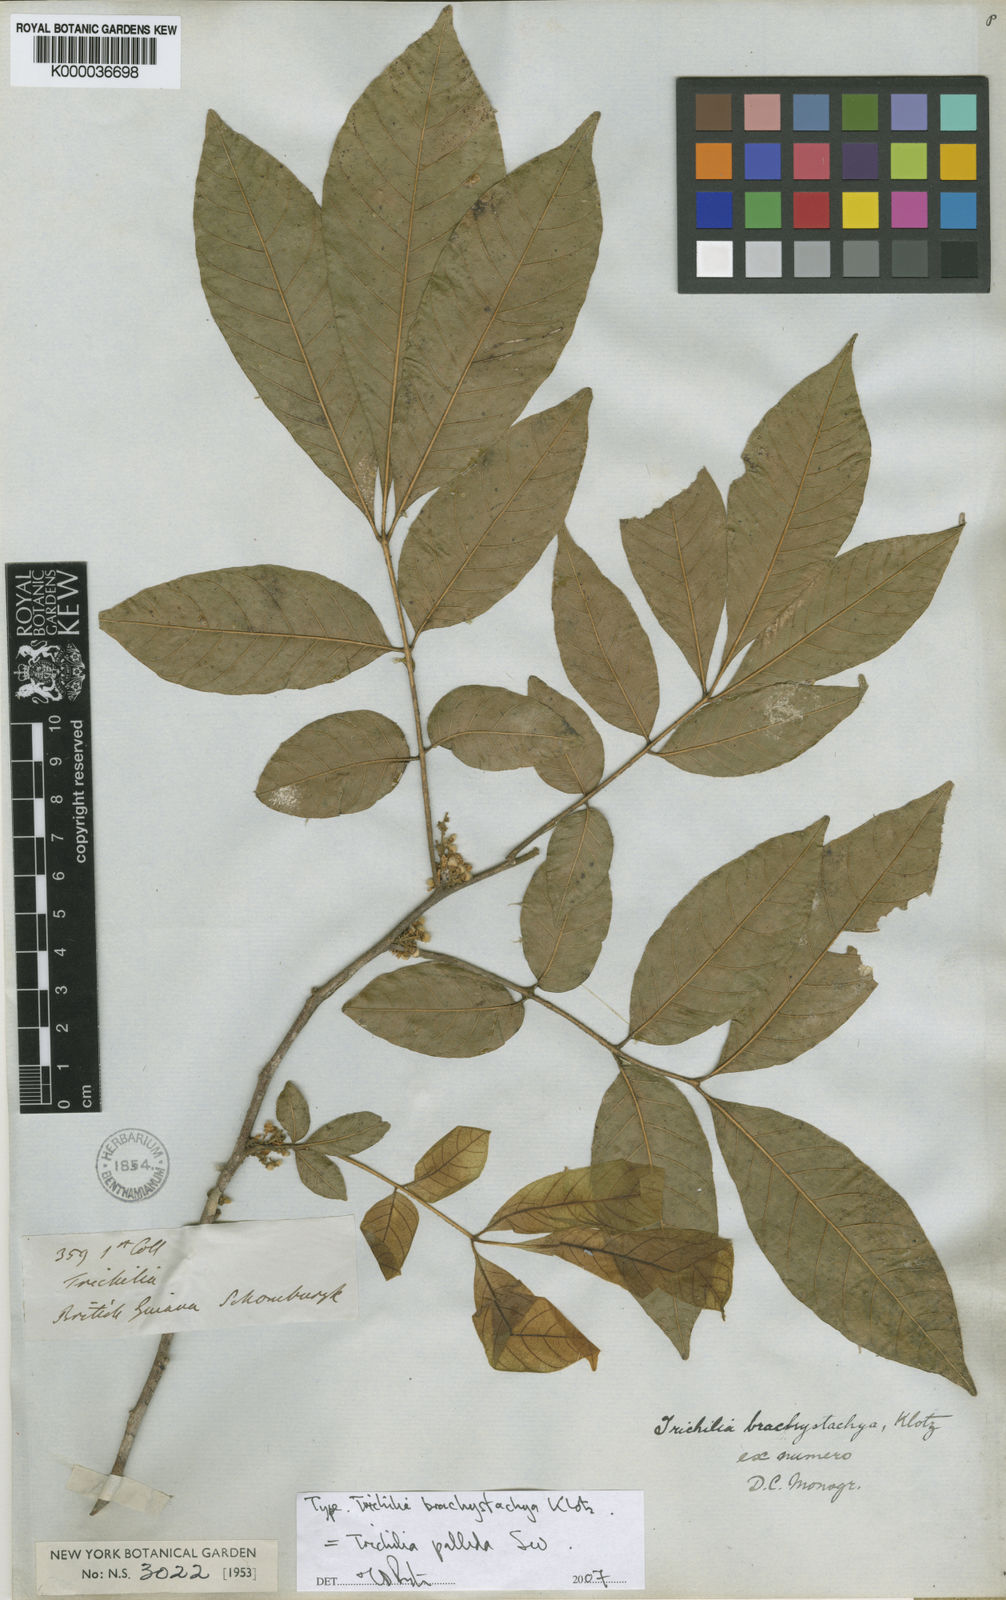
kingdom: Plantae
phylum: Tracheophyta
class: Magnoliopsida
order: Sapindales
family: Meliaceae
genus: Trichilia
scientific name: Trichilia pallida
